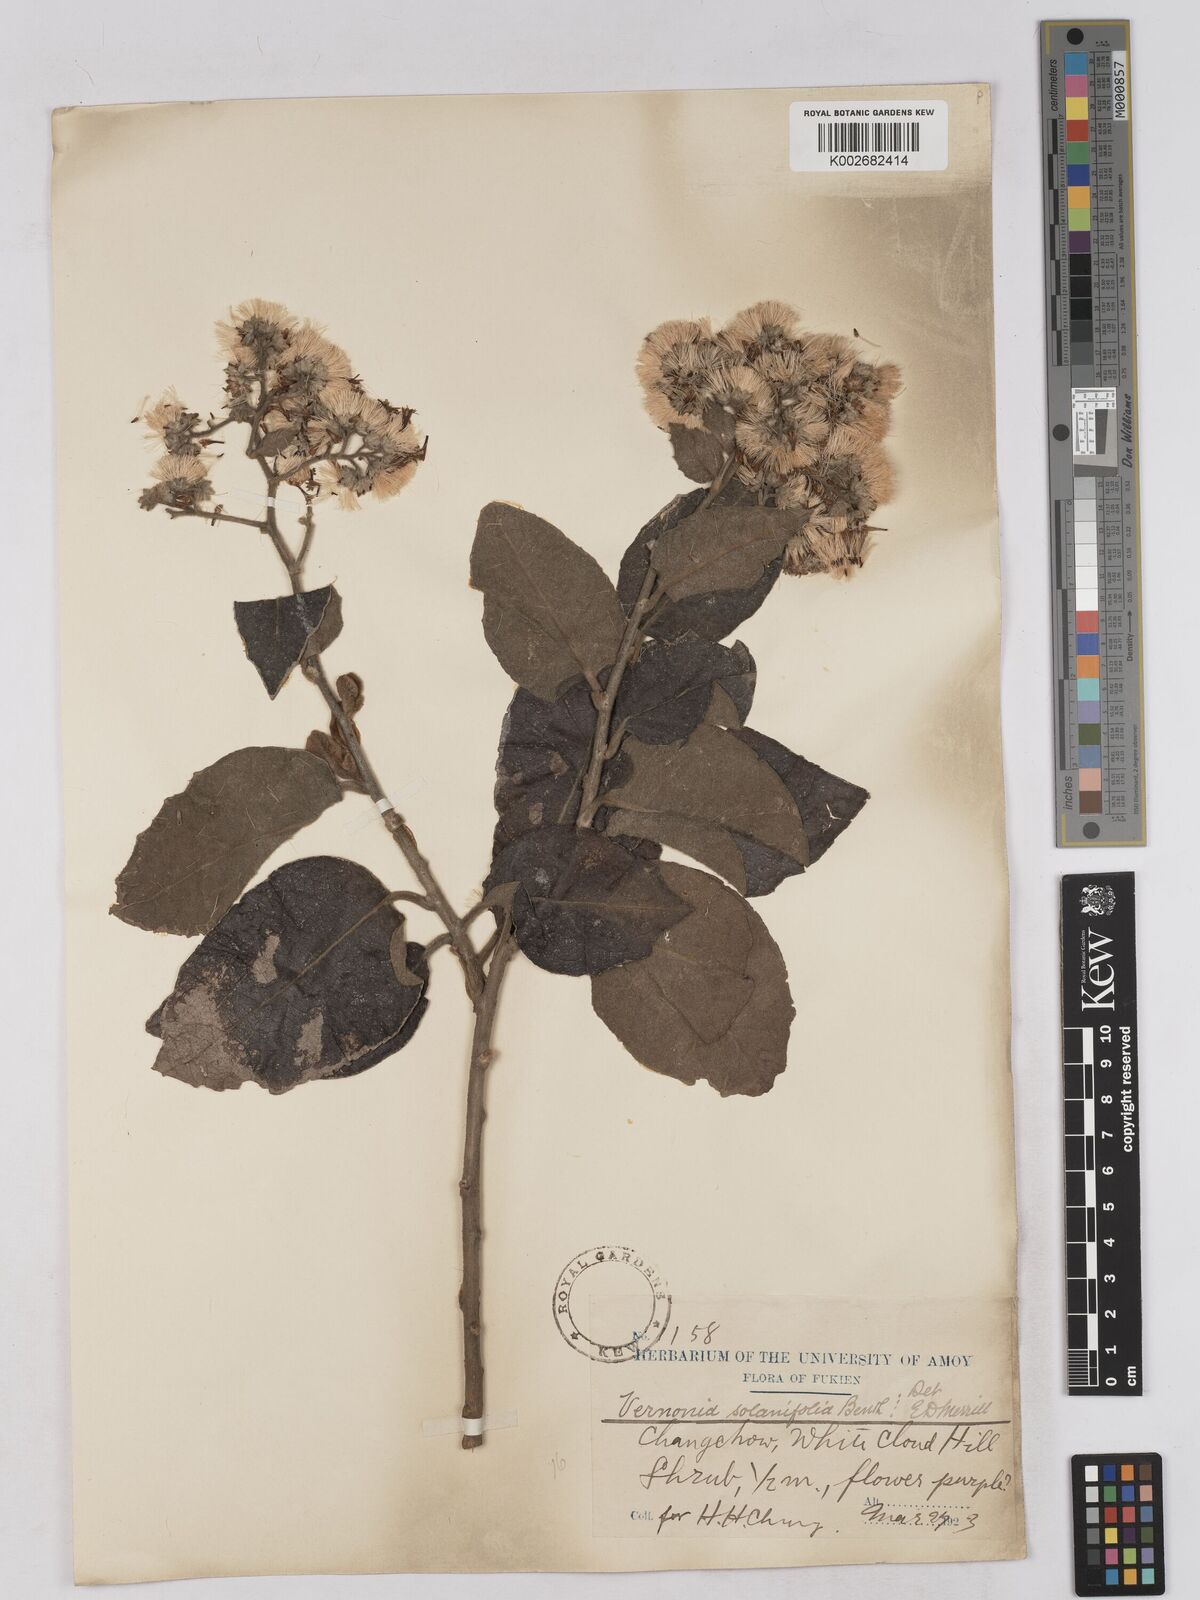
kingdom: Plantae
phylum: Tracheophyta
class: Magnoliopsida
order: Asterales
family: Asteraceae
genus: Strobocalyx
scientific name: Strobocalyx solanifolia
